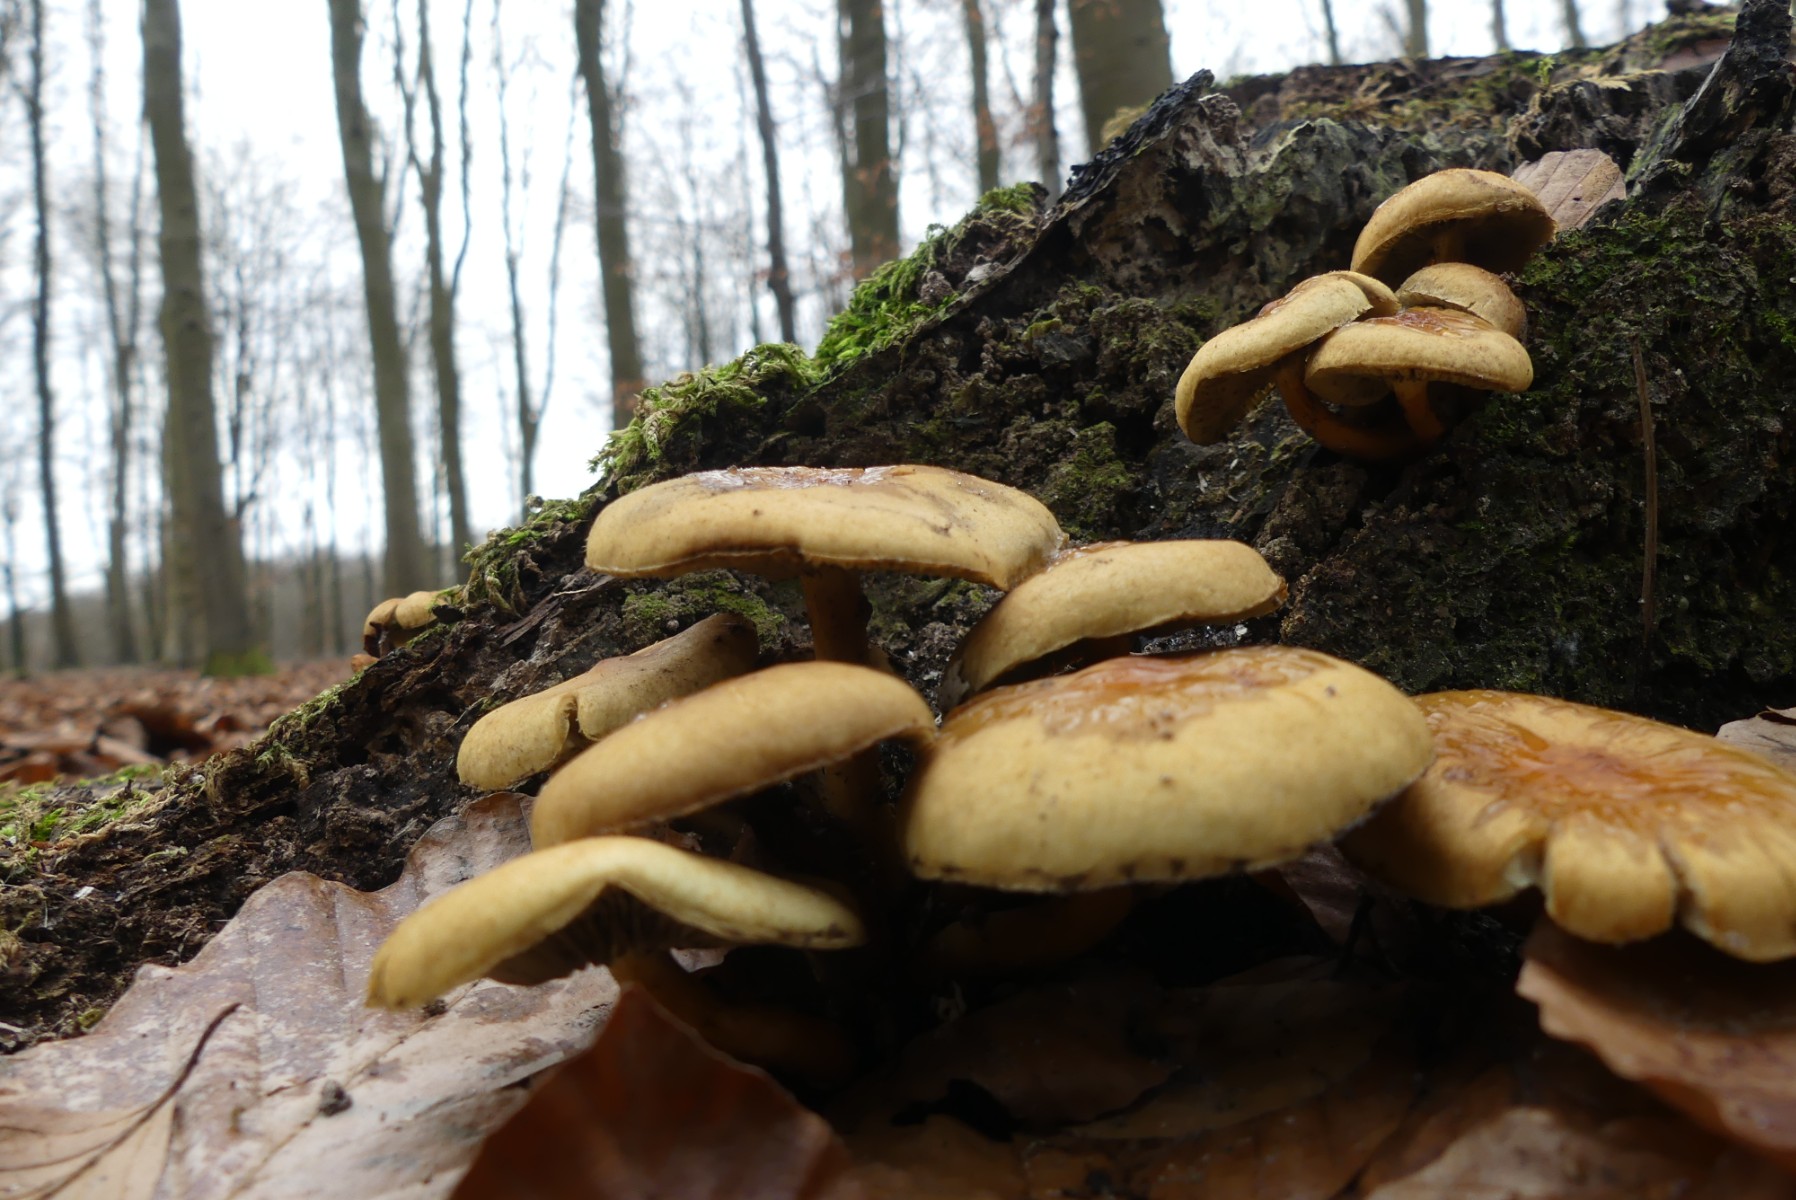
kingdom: Fungi
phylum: Basidiomycota
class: Agaricomycetes
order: Agaricales
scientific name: Agaricales
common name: champignonordenen
